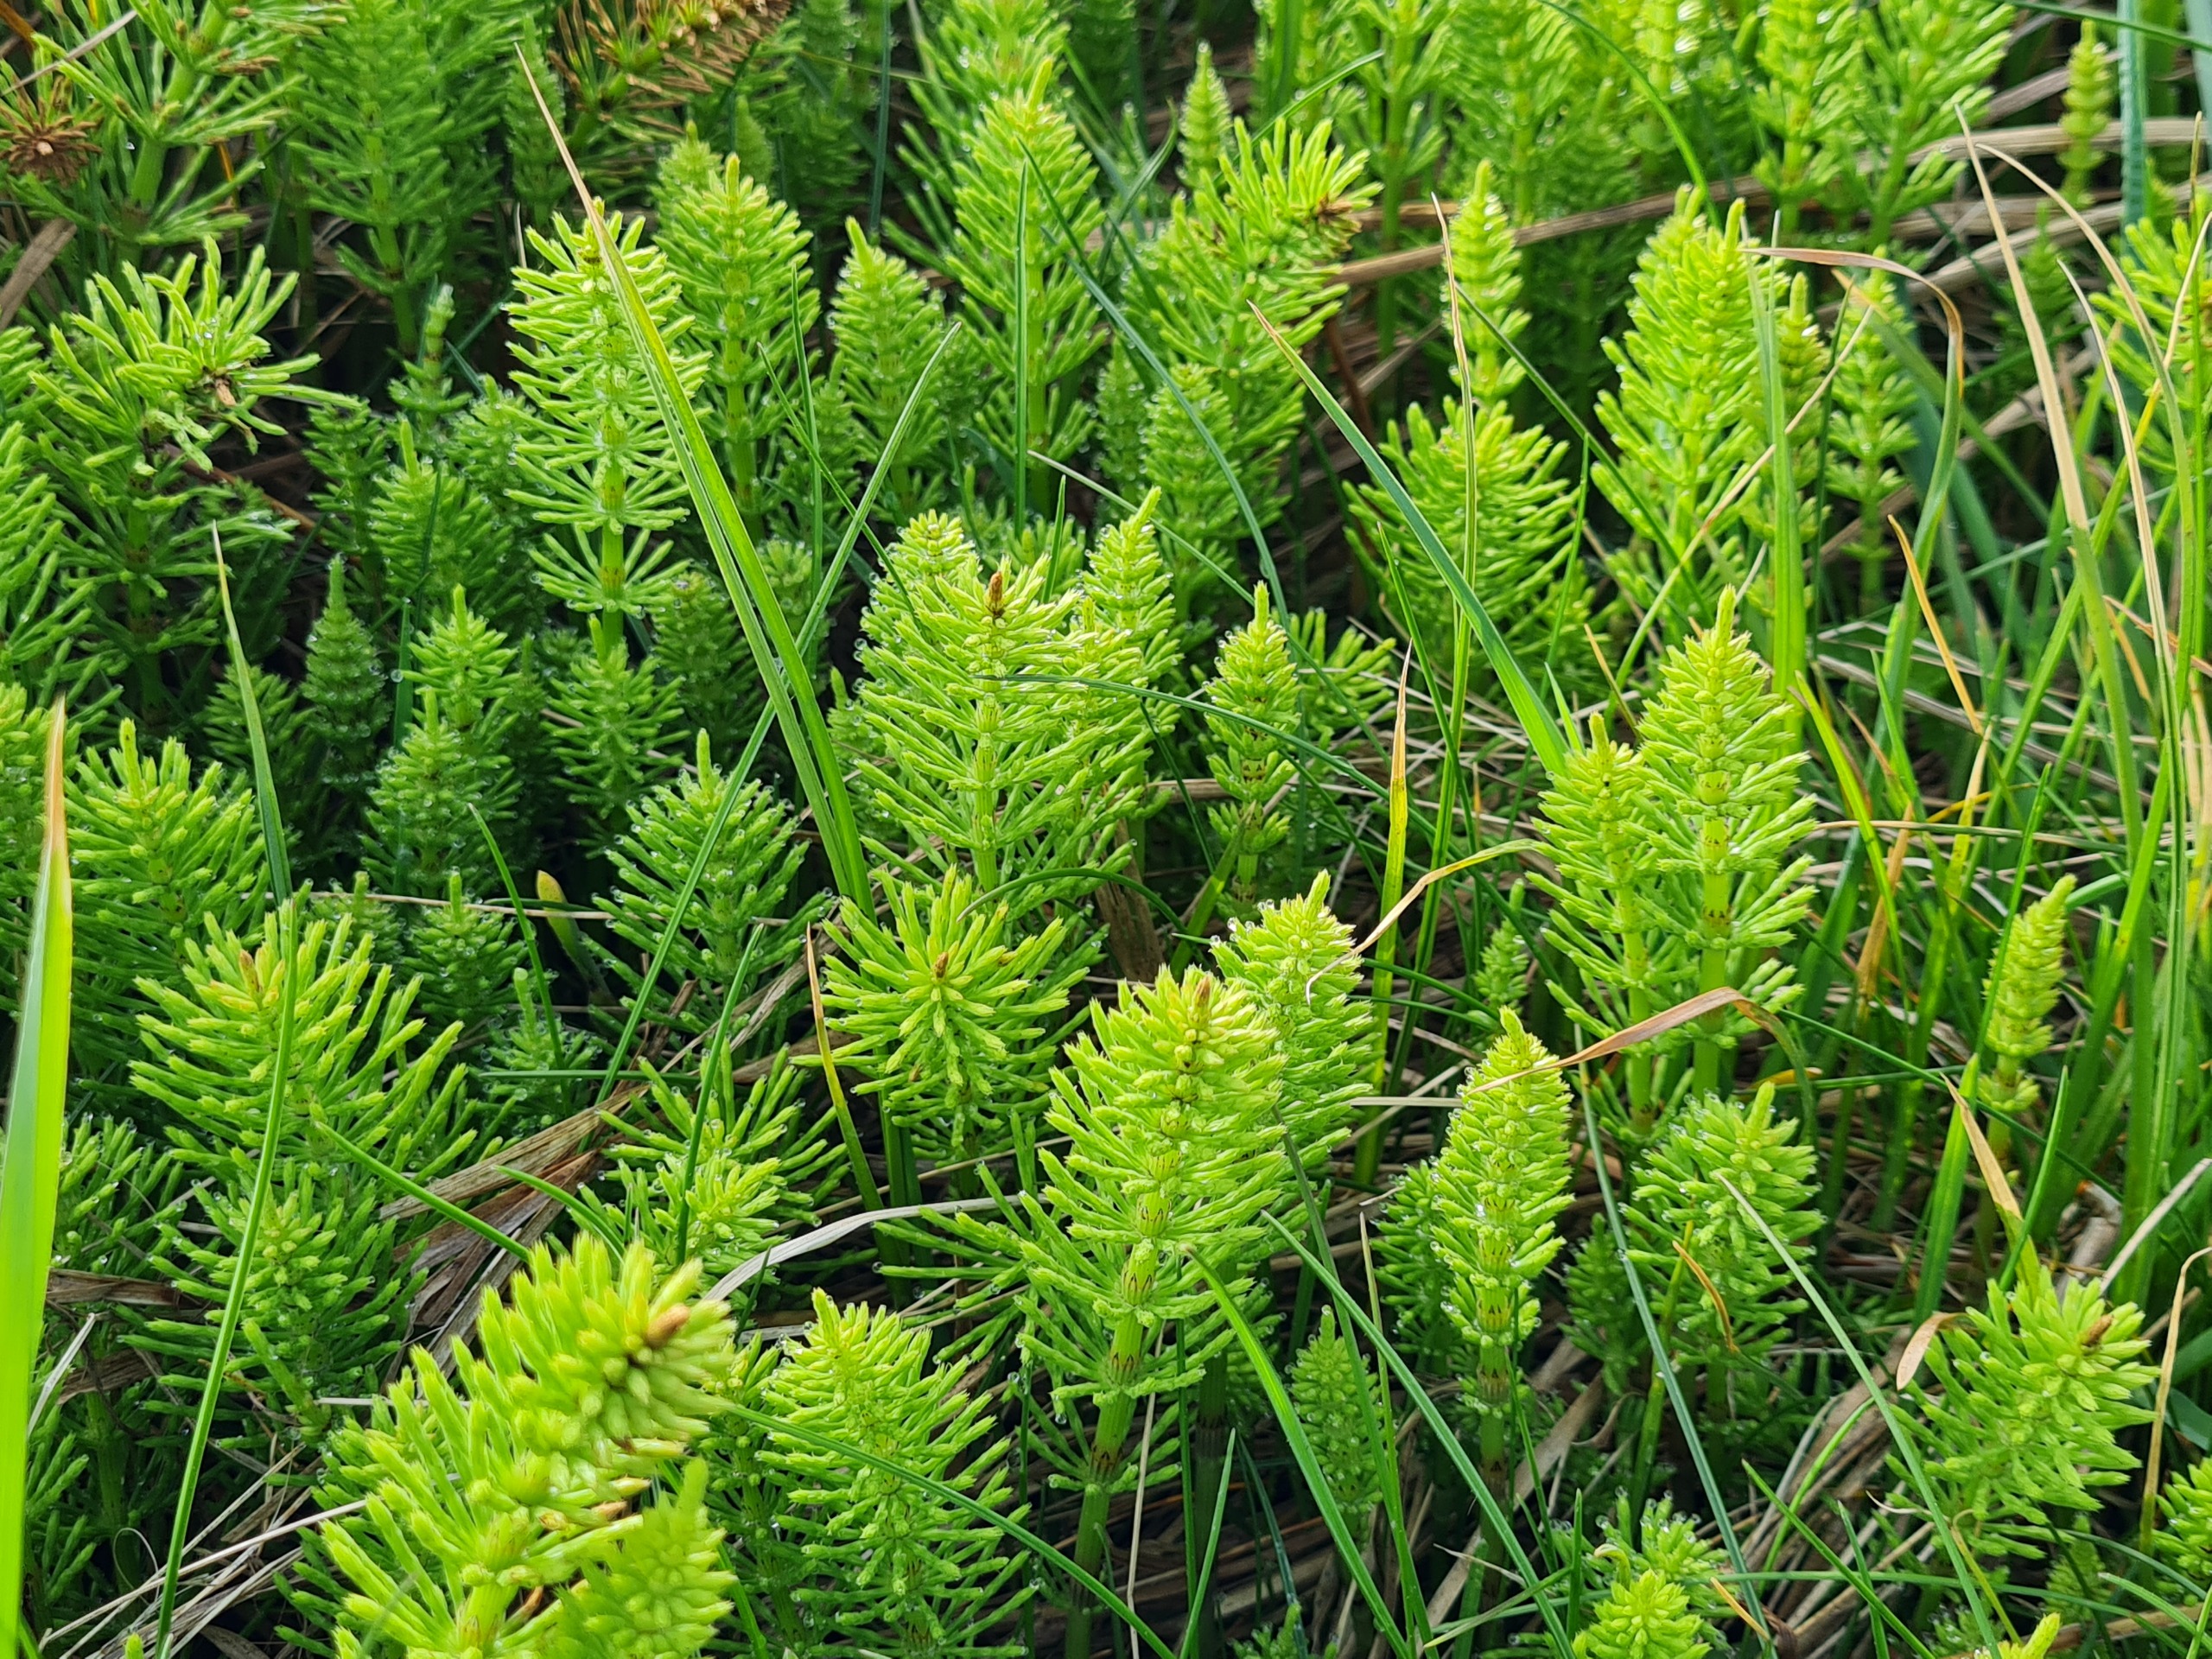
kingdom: Plantae
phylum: Tracheophyta
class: Polypodiopsida
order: Equisetales
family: Equisetaceae
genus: Equisetum
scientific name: Equisetum arvense
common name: Ager-padderok
